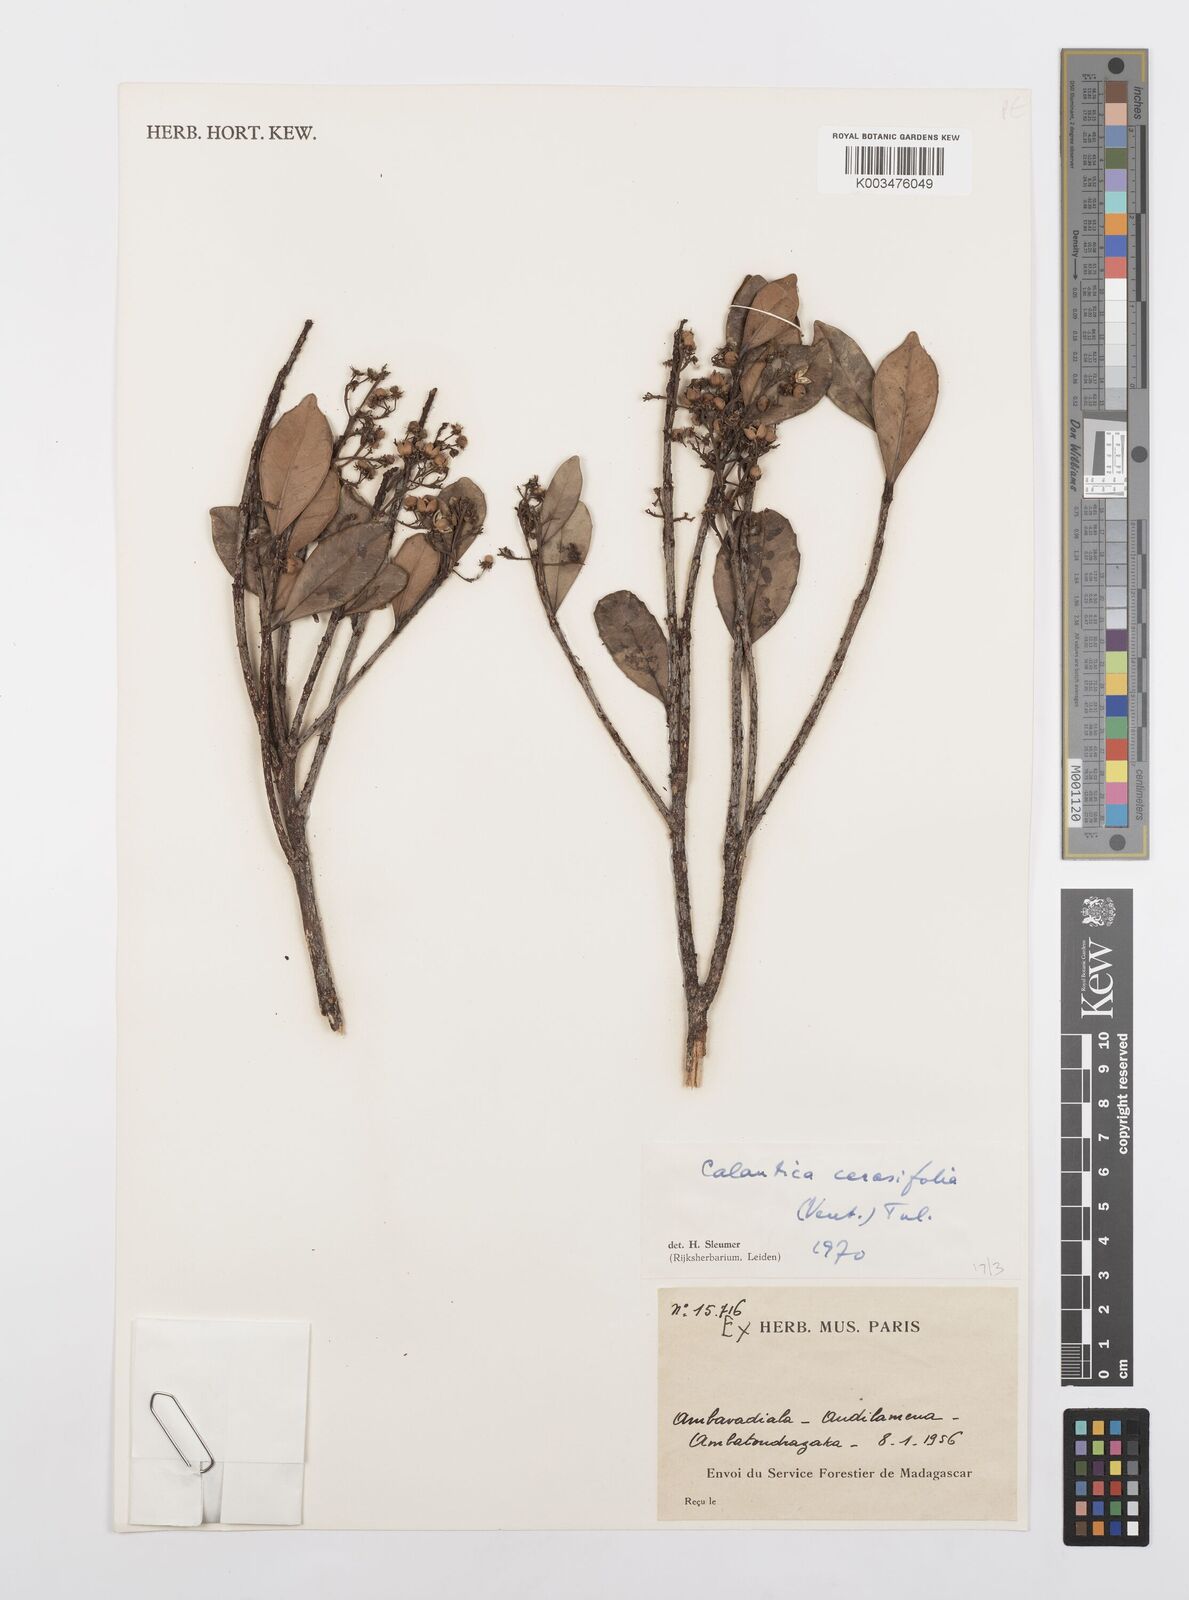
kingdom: Plantae
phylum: Tracheophyta
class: Magnoliopsida
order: Malpighiales
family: Salicaceae
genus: Calantica
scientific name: Calantica cerasifolia
